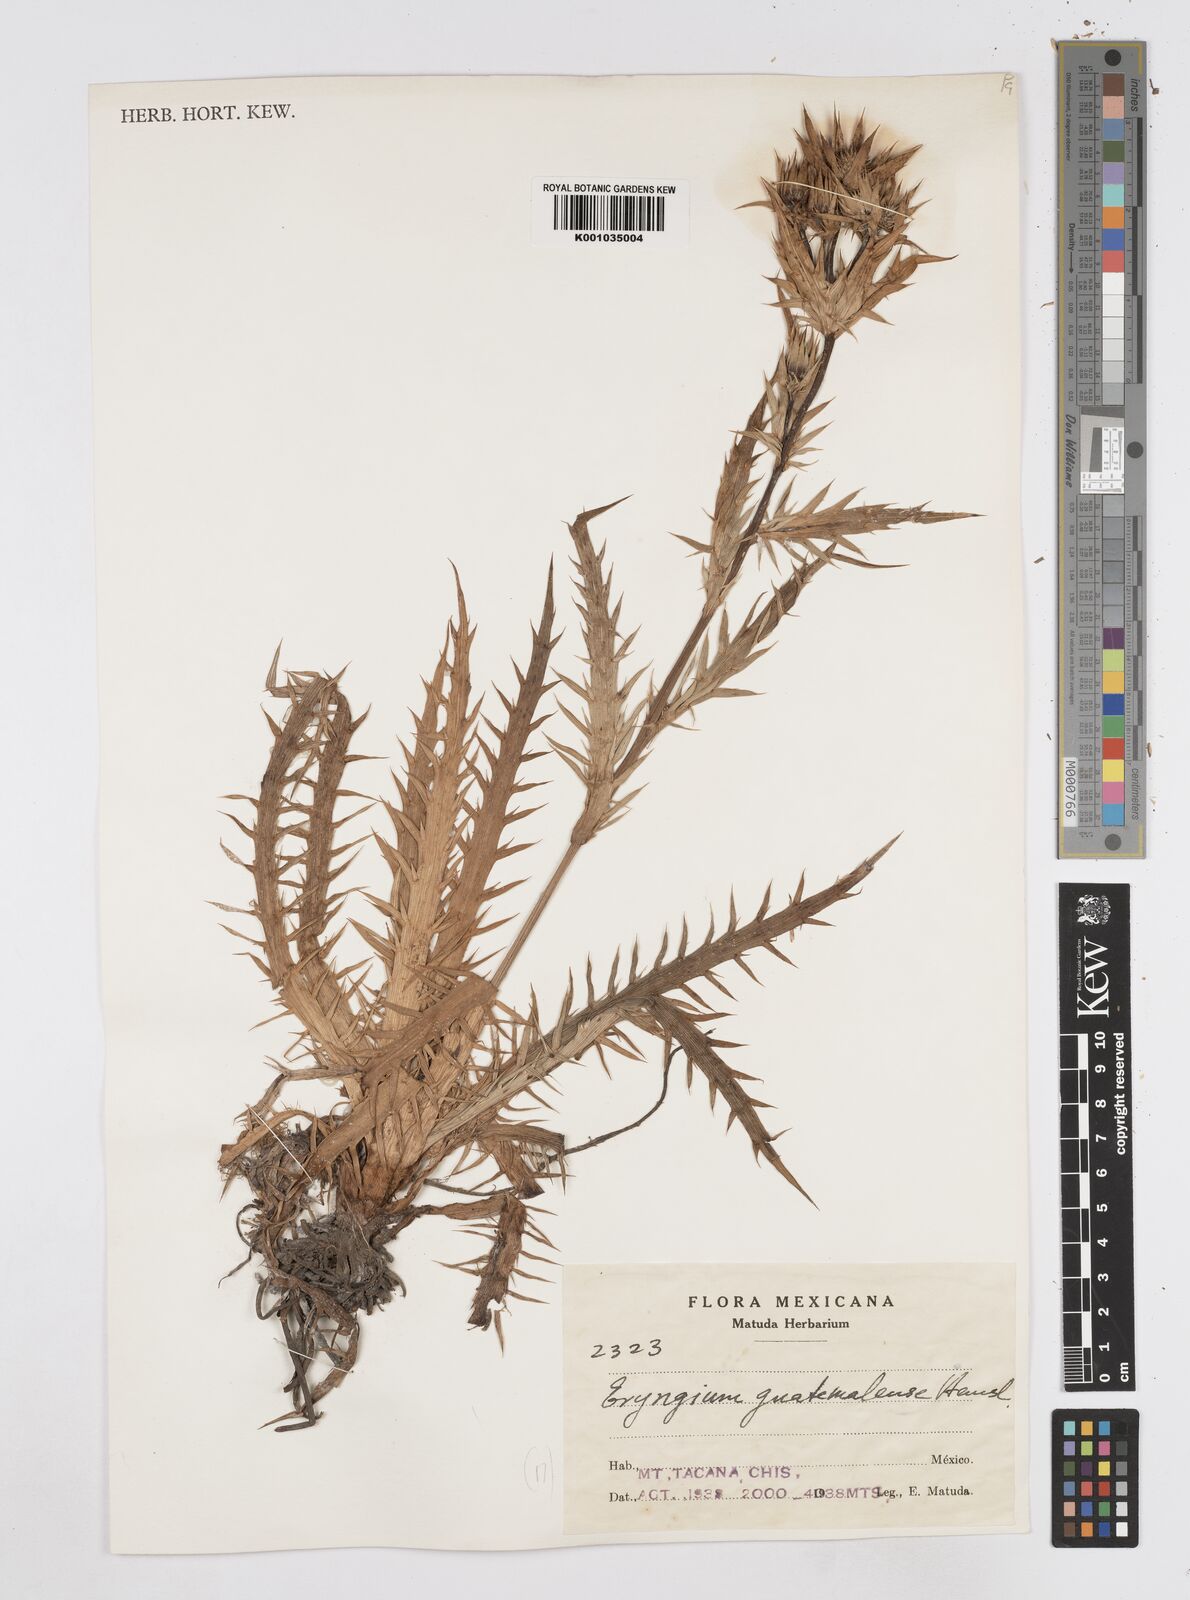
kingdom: Plantae
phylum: Tracheophyta
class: Magnoliopsida
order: Apiales
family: Apiaceae
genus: Eryngium
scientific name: Eryngium guatemalense
